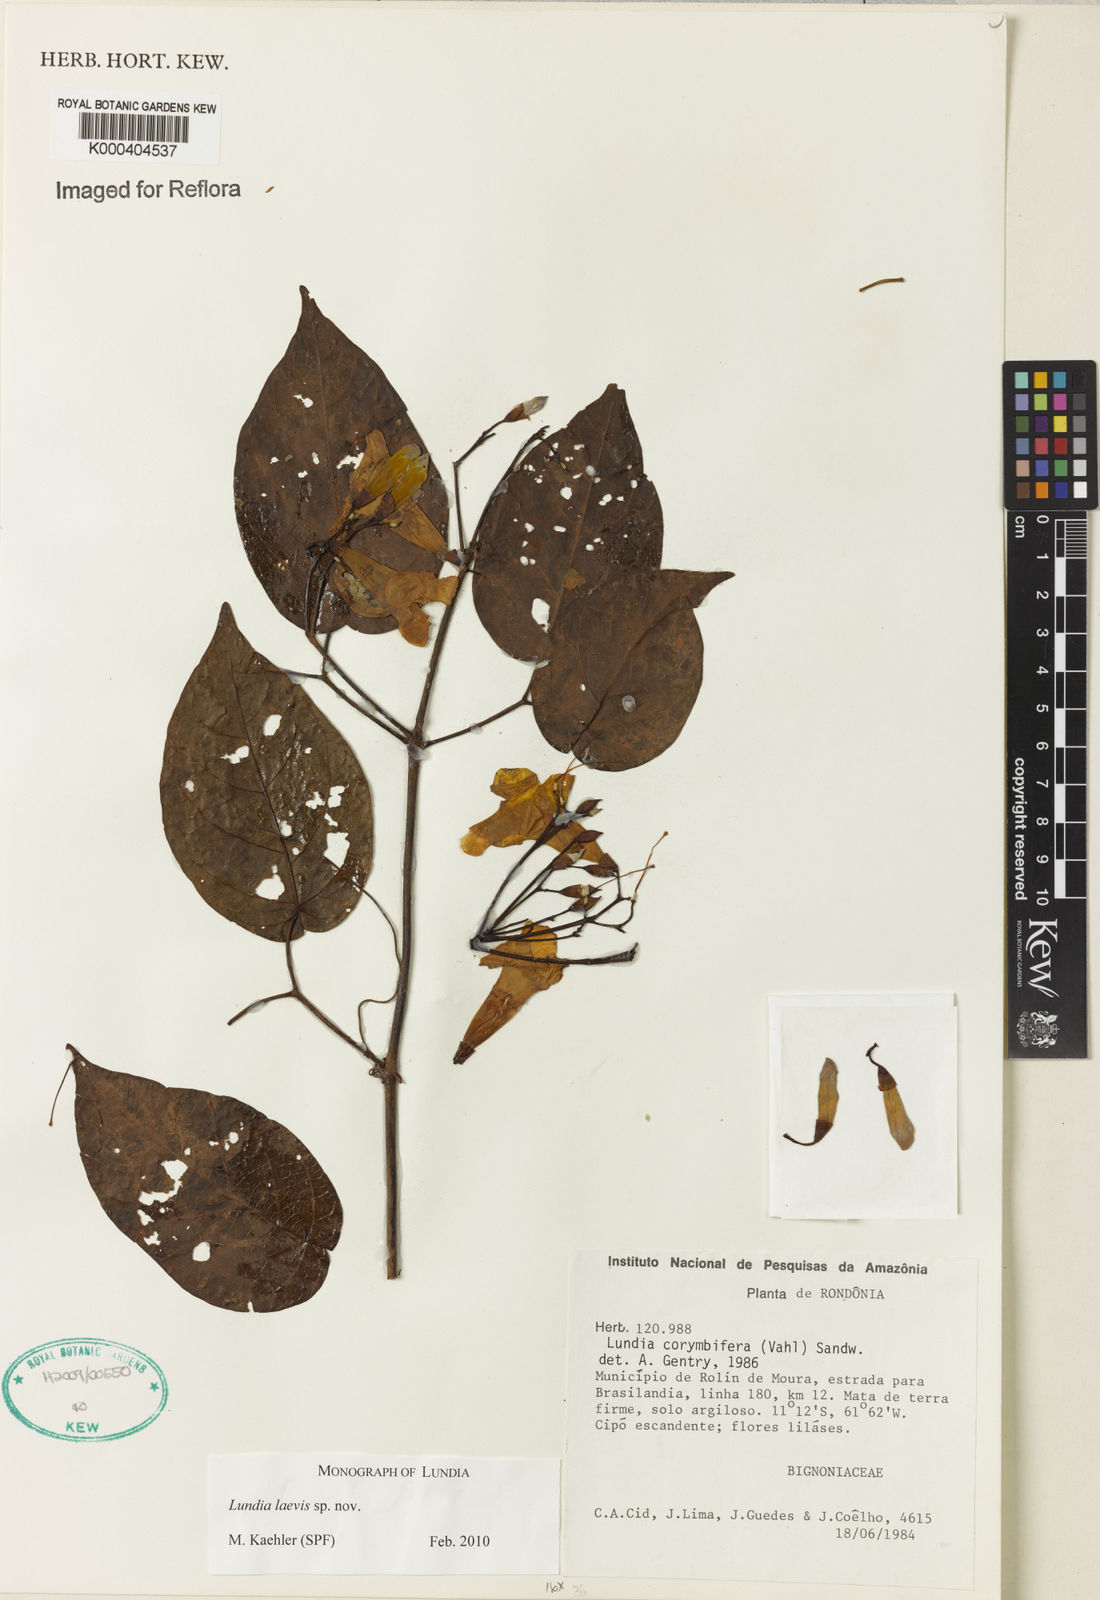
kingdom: Plantae
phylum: Tracheophyta
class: Magnoliopsida
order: Lamiales
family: Bignoniaceae
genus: Lundia
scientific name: Lundia
